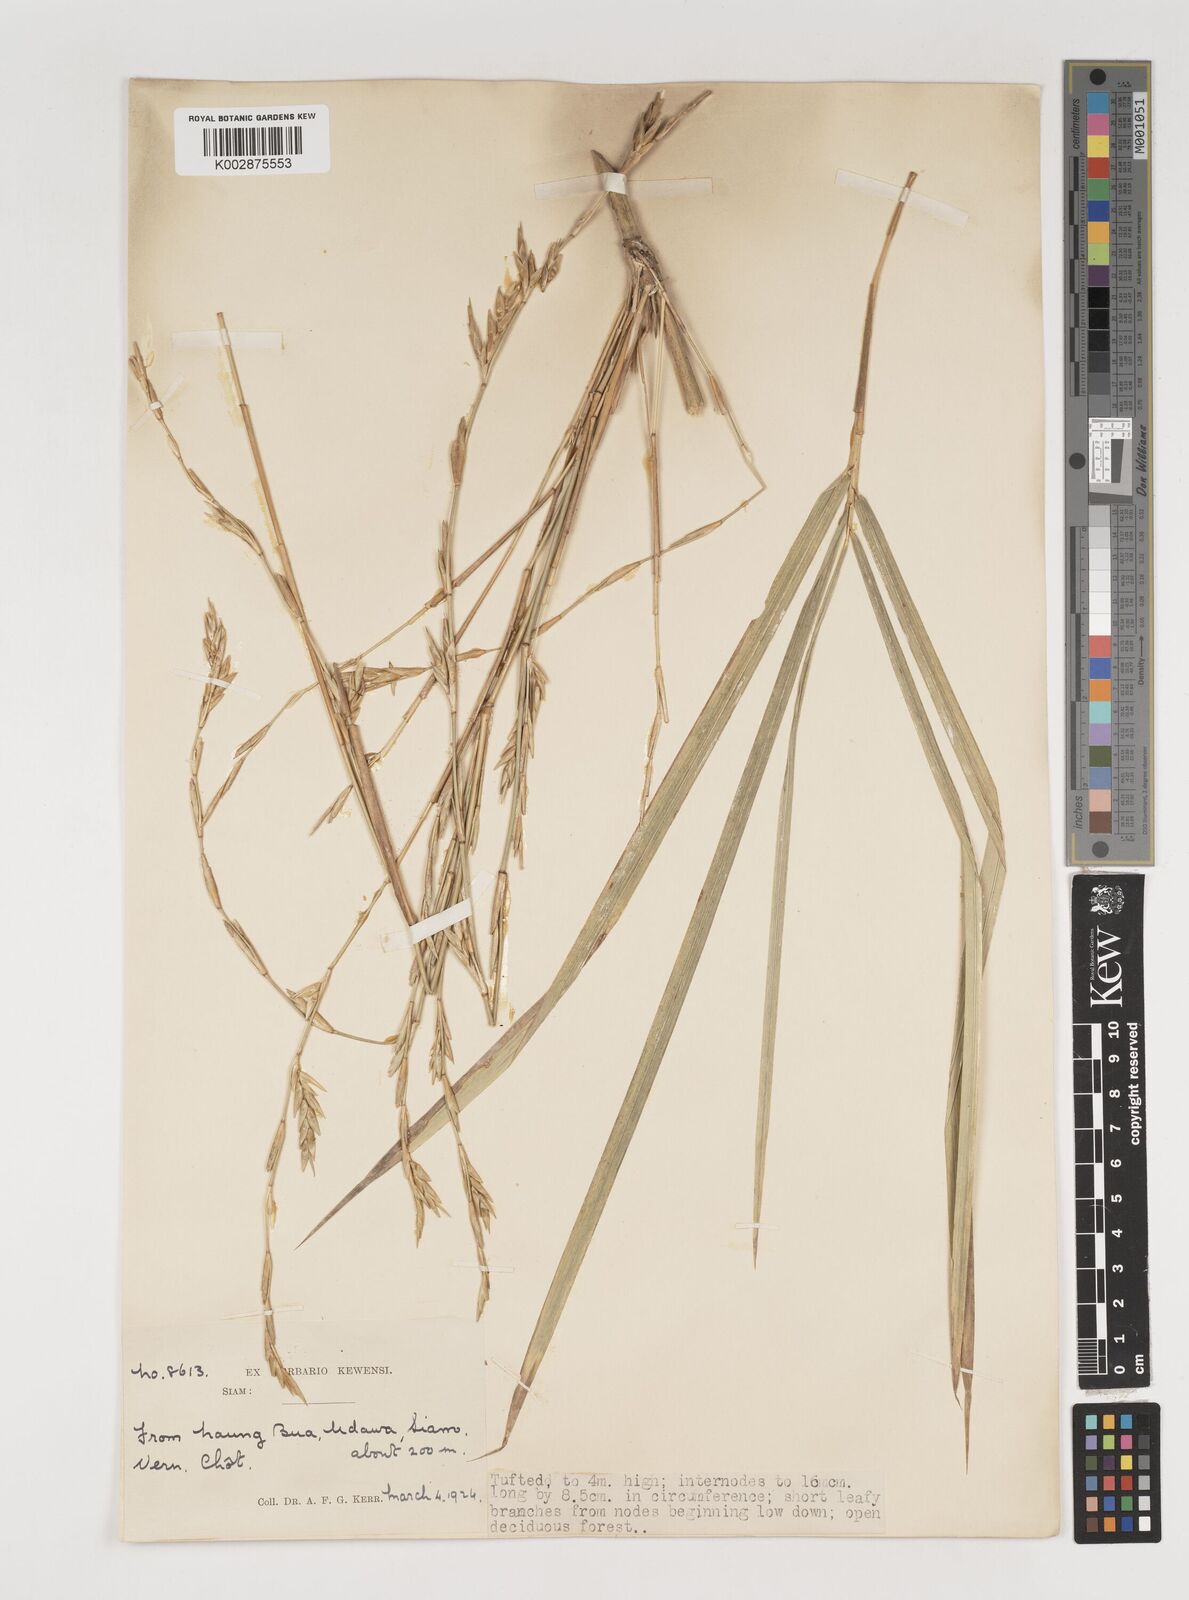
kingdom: Plantae
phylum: Tracheophyta
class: Liliopsida
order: Poales
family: Poaceae
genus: Vietnamosasa
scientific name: Vietnamosasa pusilla
